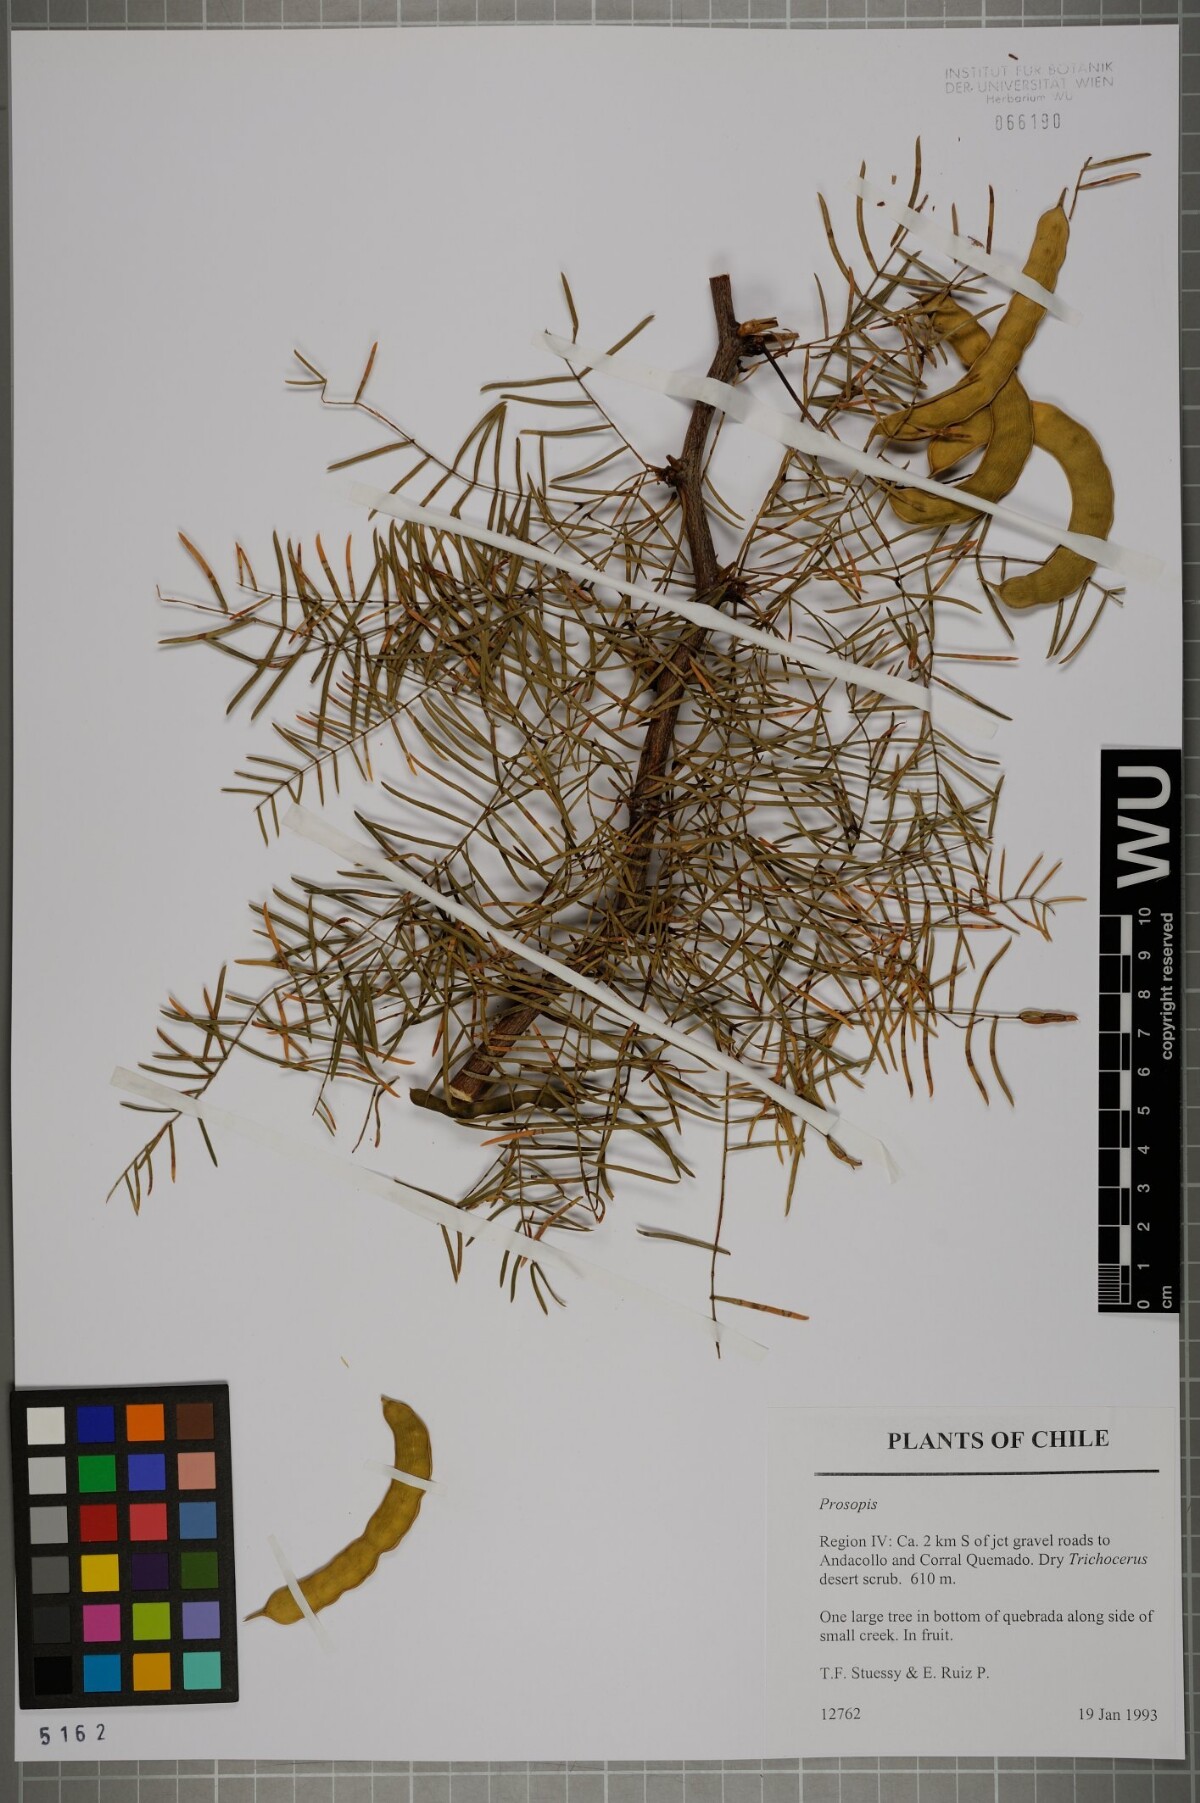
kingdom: Plantae
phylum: Tracheophyta
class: Magnoliopsida
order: Fabales
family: Fabaceae
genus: Prosopis
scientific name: Prosopis
